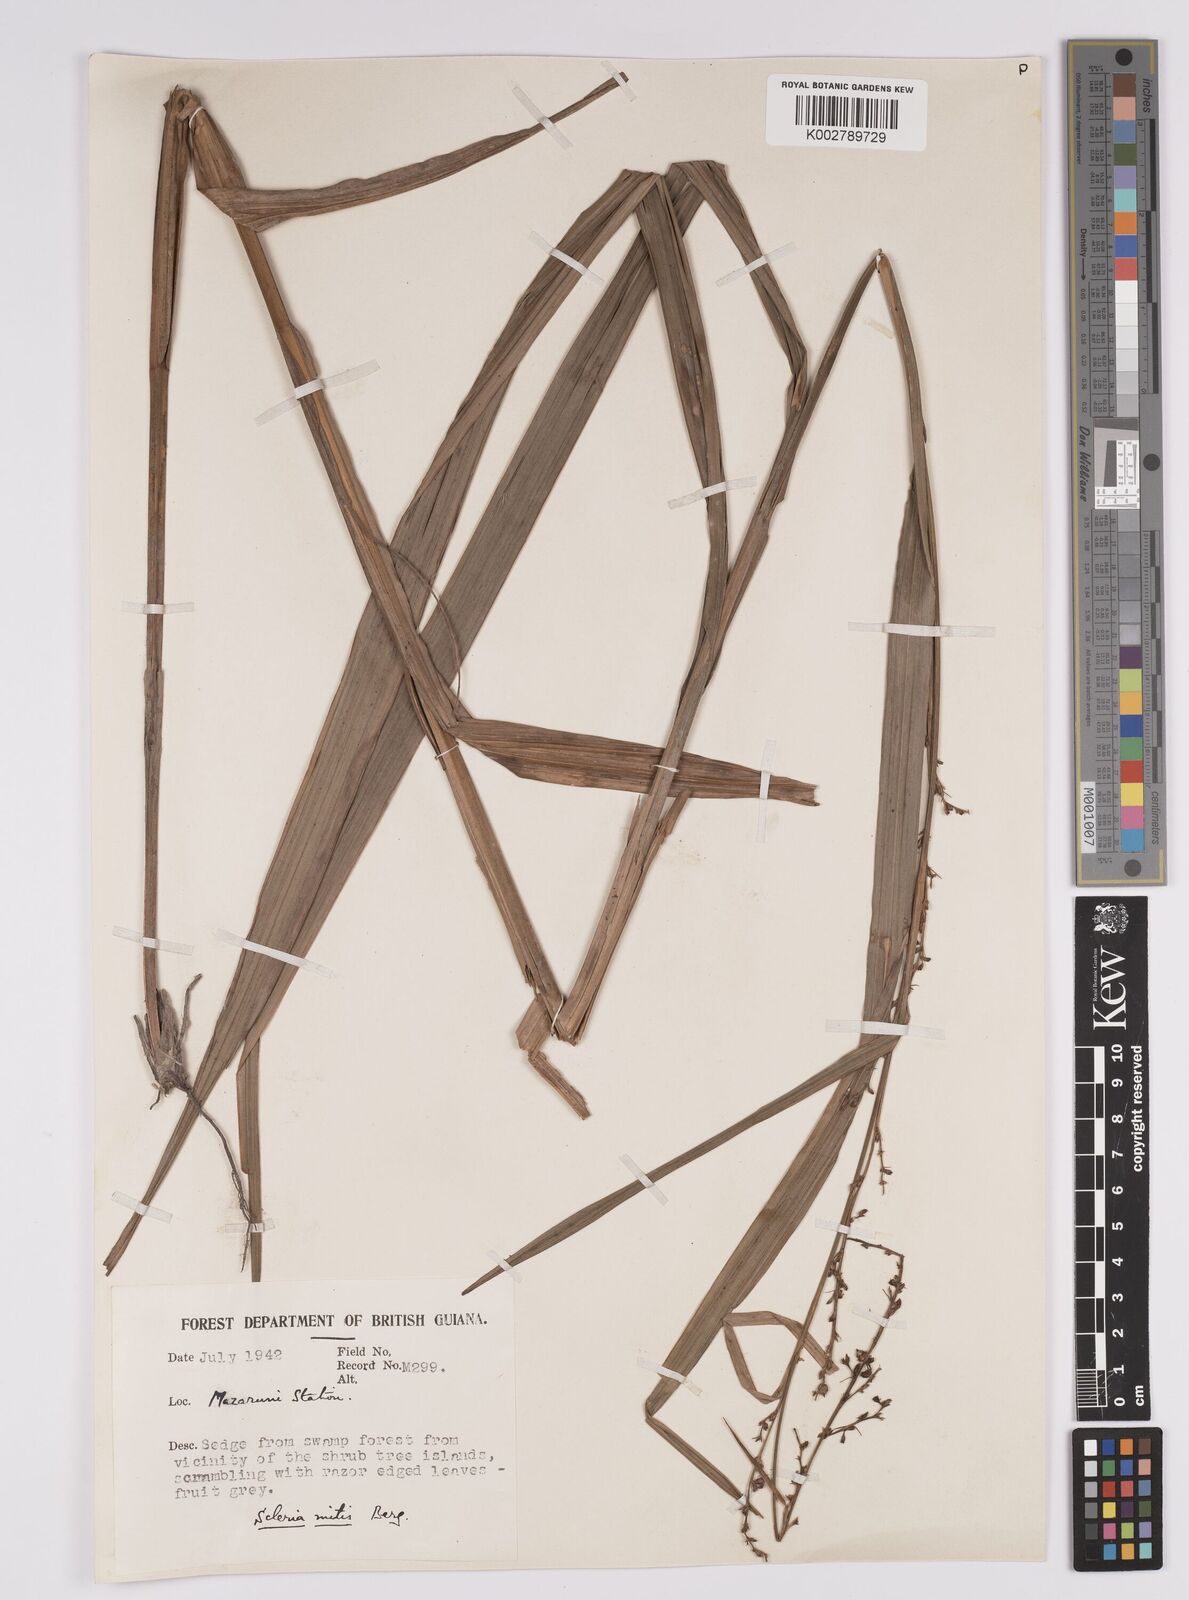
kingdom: Plantae
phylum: Tracheophyta
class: Liliopsida
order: Poales
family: Cyperaceae
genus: Scleria
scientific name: Scleria mitis
